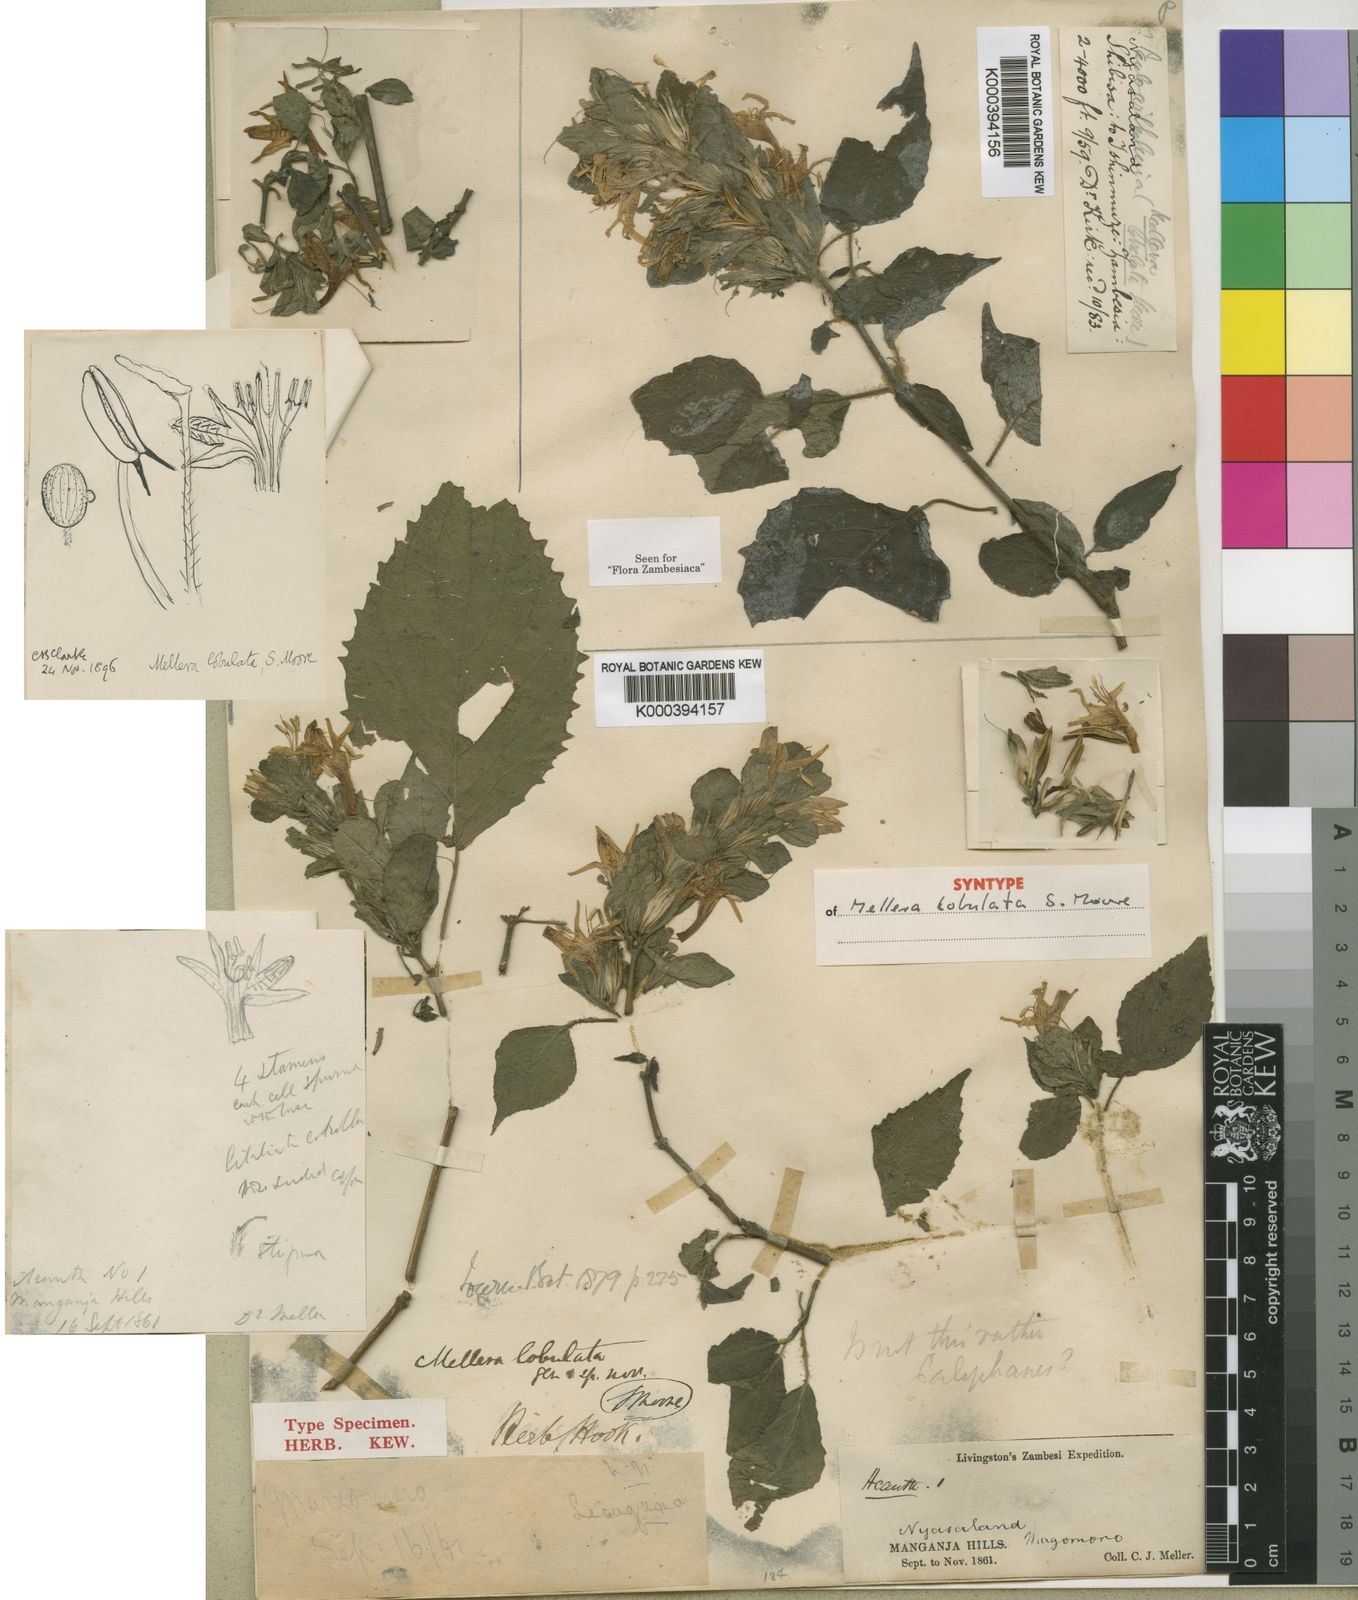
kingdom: Plantae
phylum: Tracheophyta
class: Magnoliopsida
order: Lamiales
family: Acanthaceae
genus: Mellera
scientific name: Mellera lobulata
